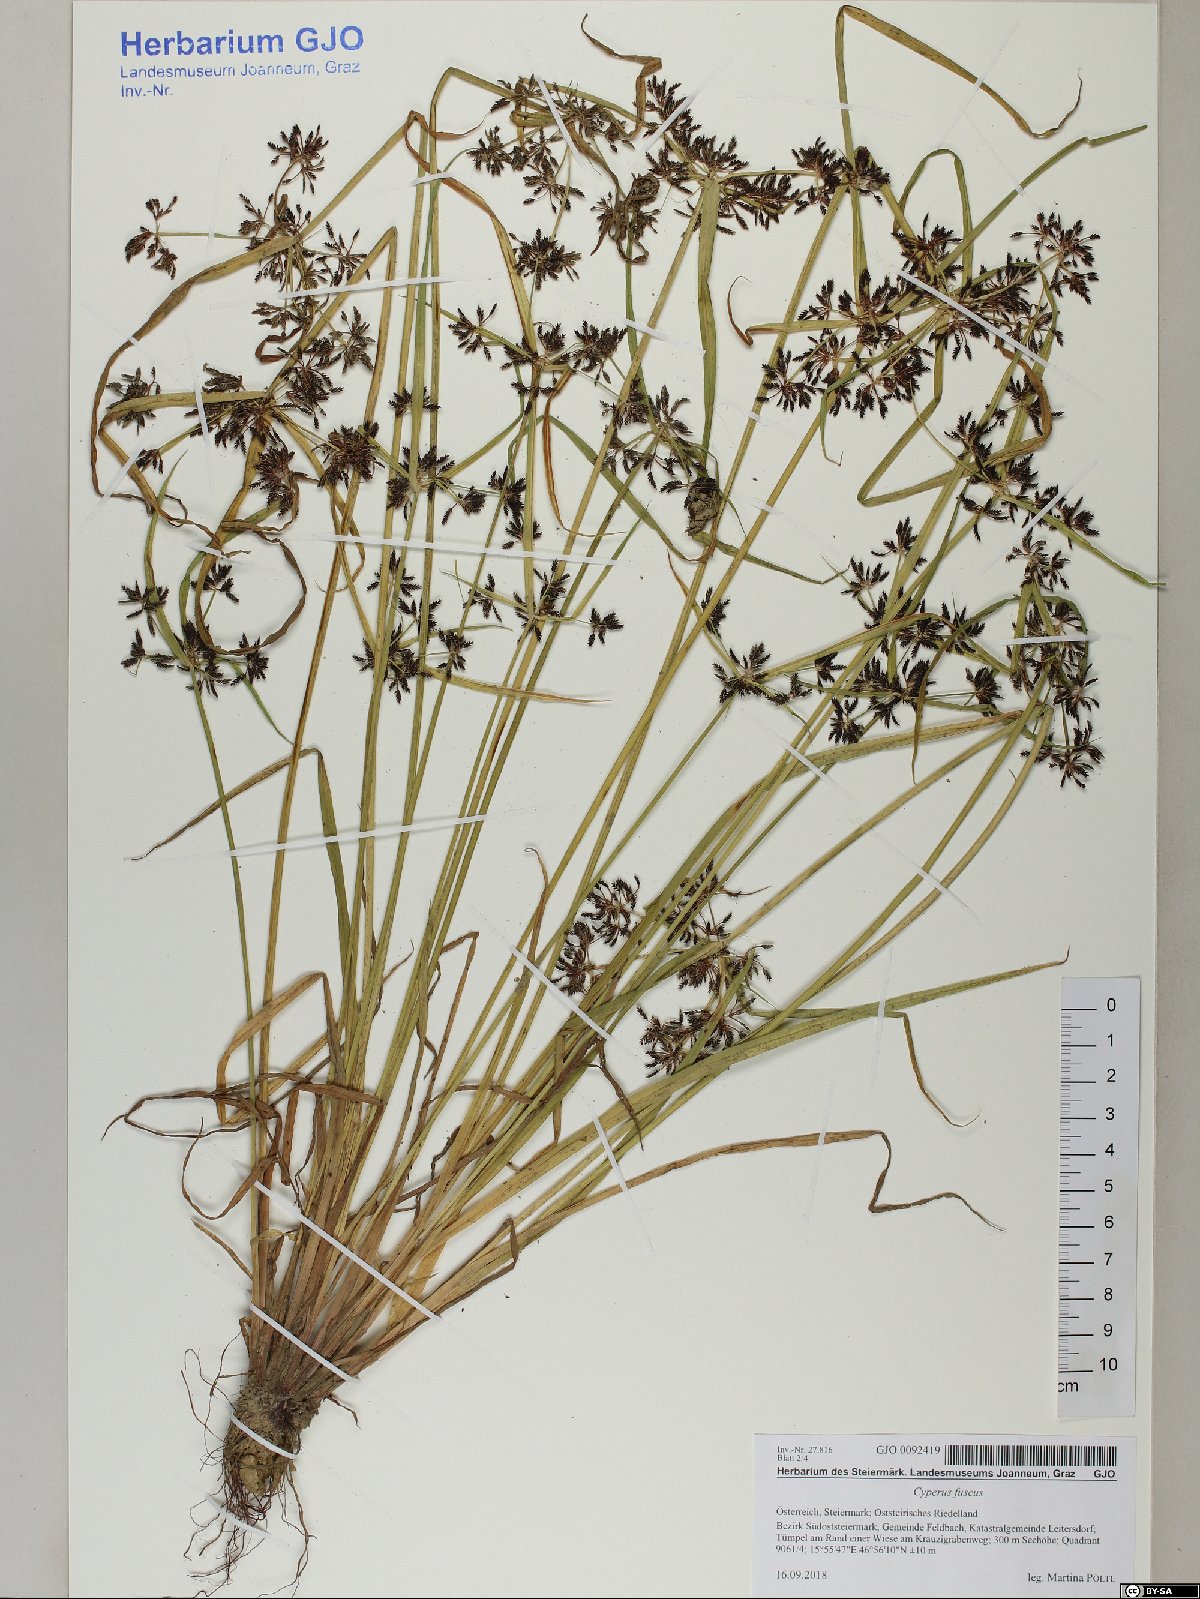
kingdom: Plantae
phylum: Tracheophyta
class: Liliopsida
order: Poales
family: Cyperaceae
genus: Cyperus
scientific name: Cyperus fuscus
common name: Brown galingale
